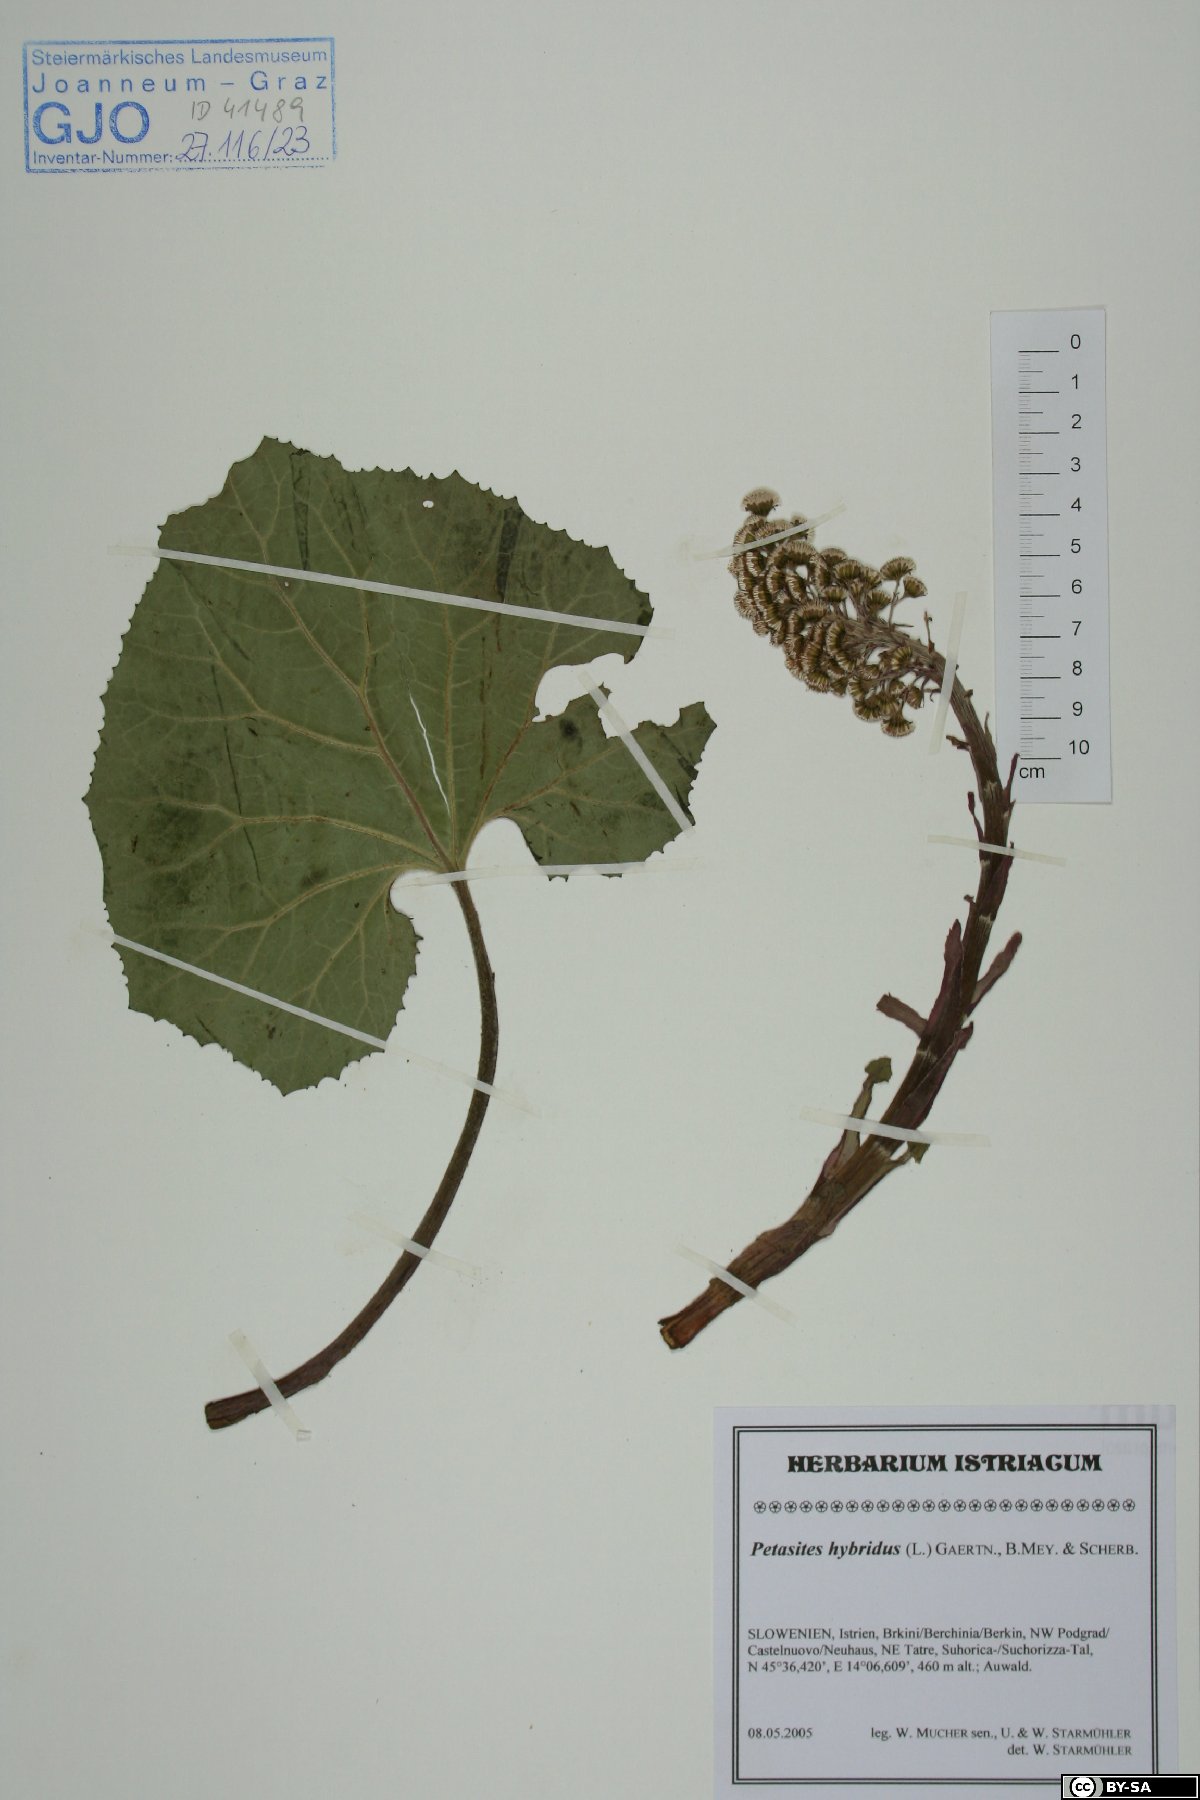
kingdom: Plantae
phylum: Tracheophyta
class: Magnoliopsida
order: Asterales
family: Asteraceae
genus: Petasites
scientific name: Petasites hybridus
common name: Butterbur
